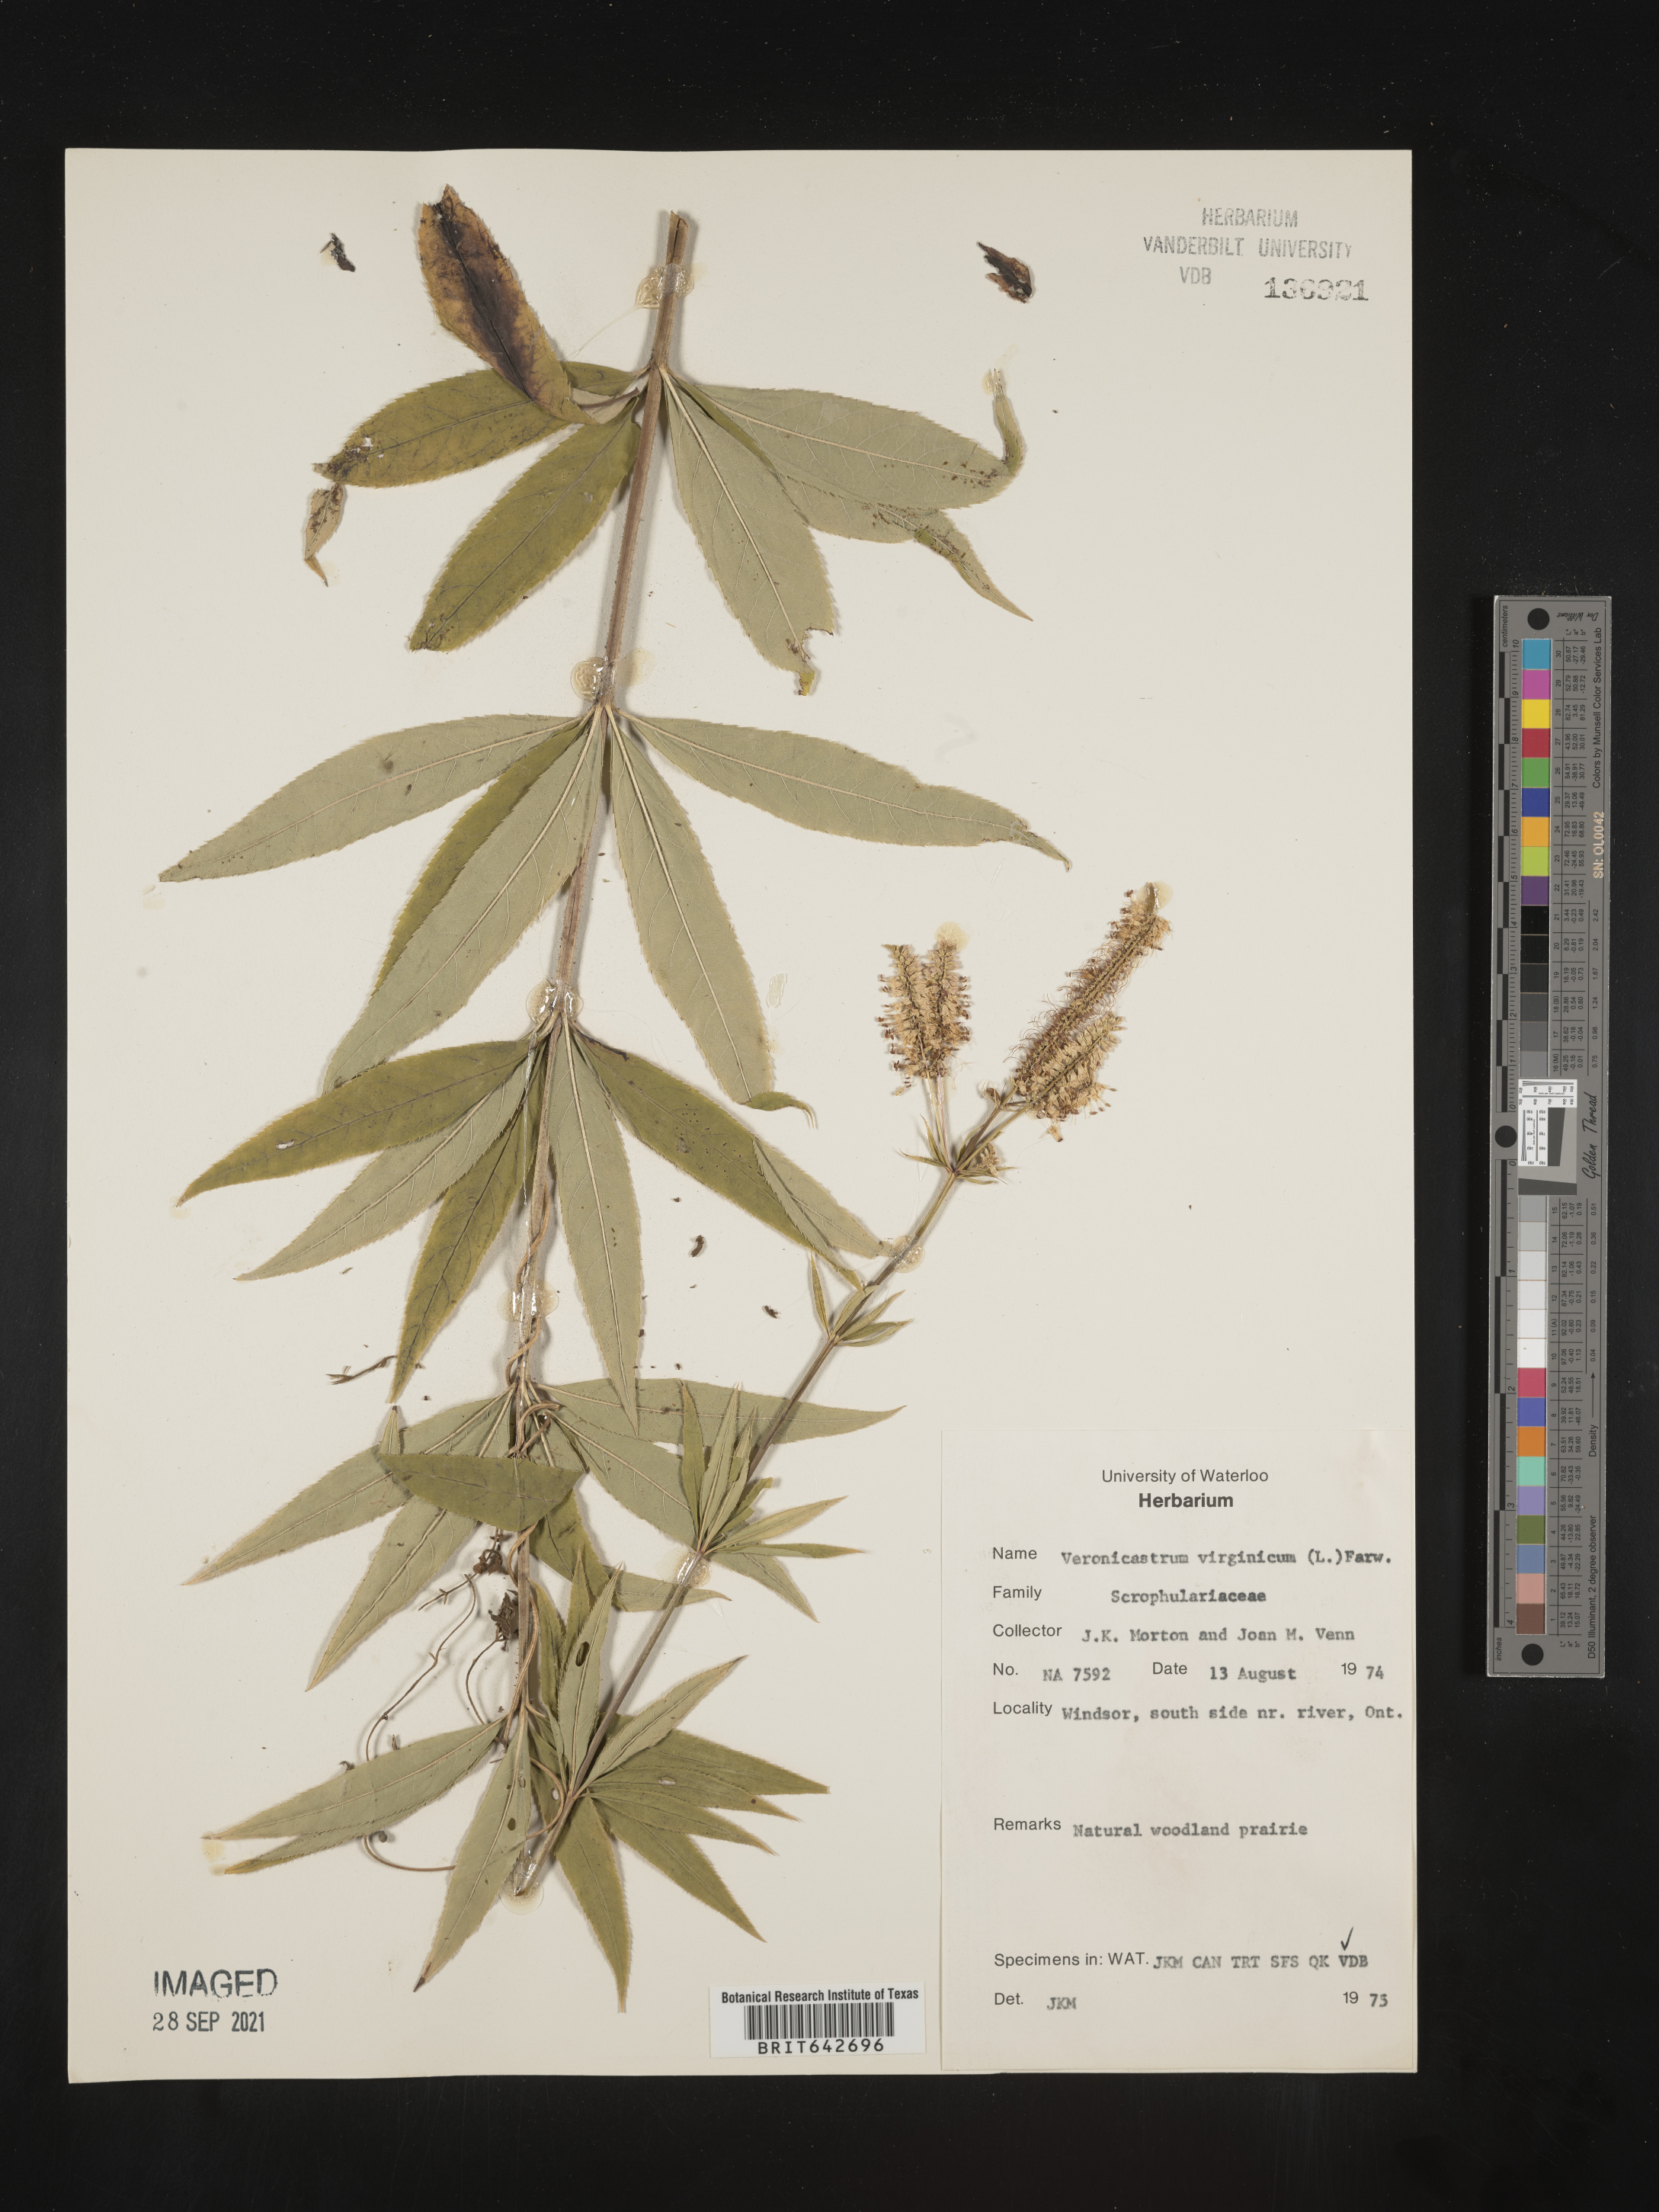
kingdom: Plantae
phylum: Tracheophyta
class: Magnoliopsida
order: Lamiales
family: Plantaginaceae
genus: Veronicastrum
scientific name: Veronicastrum
